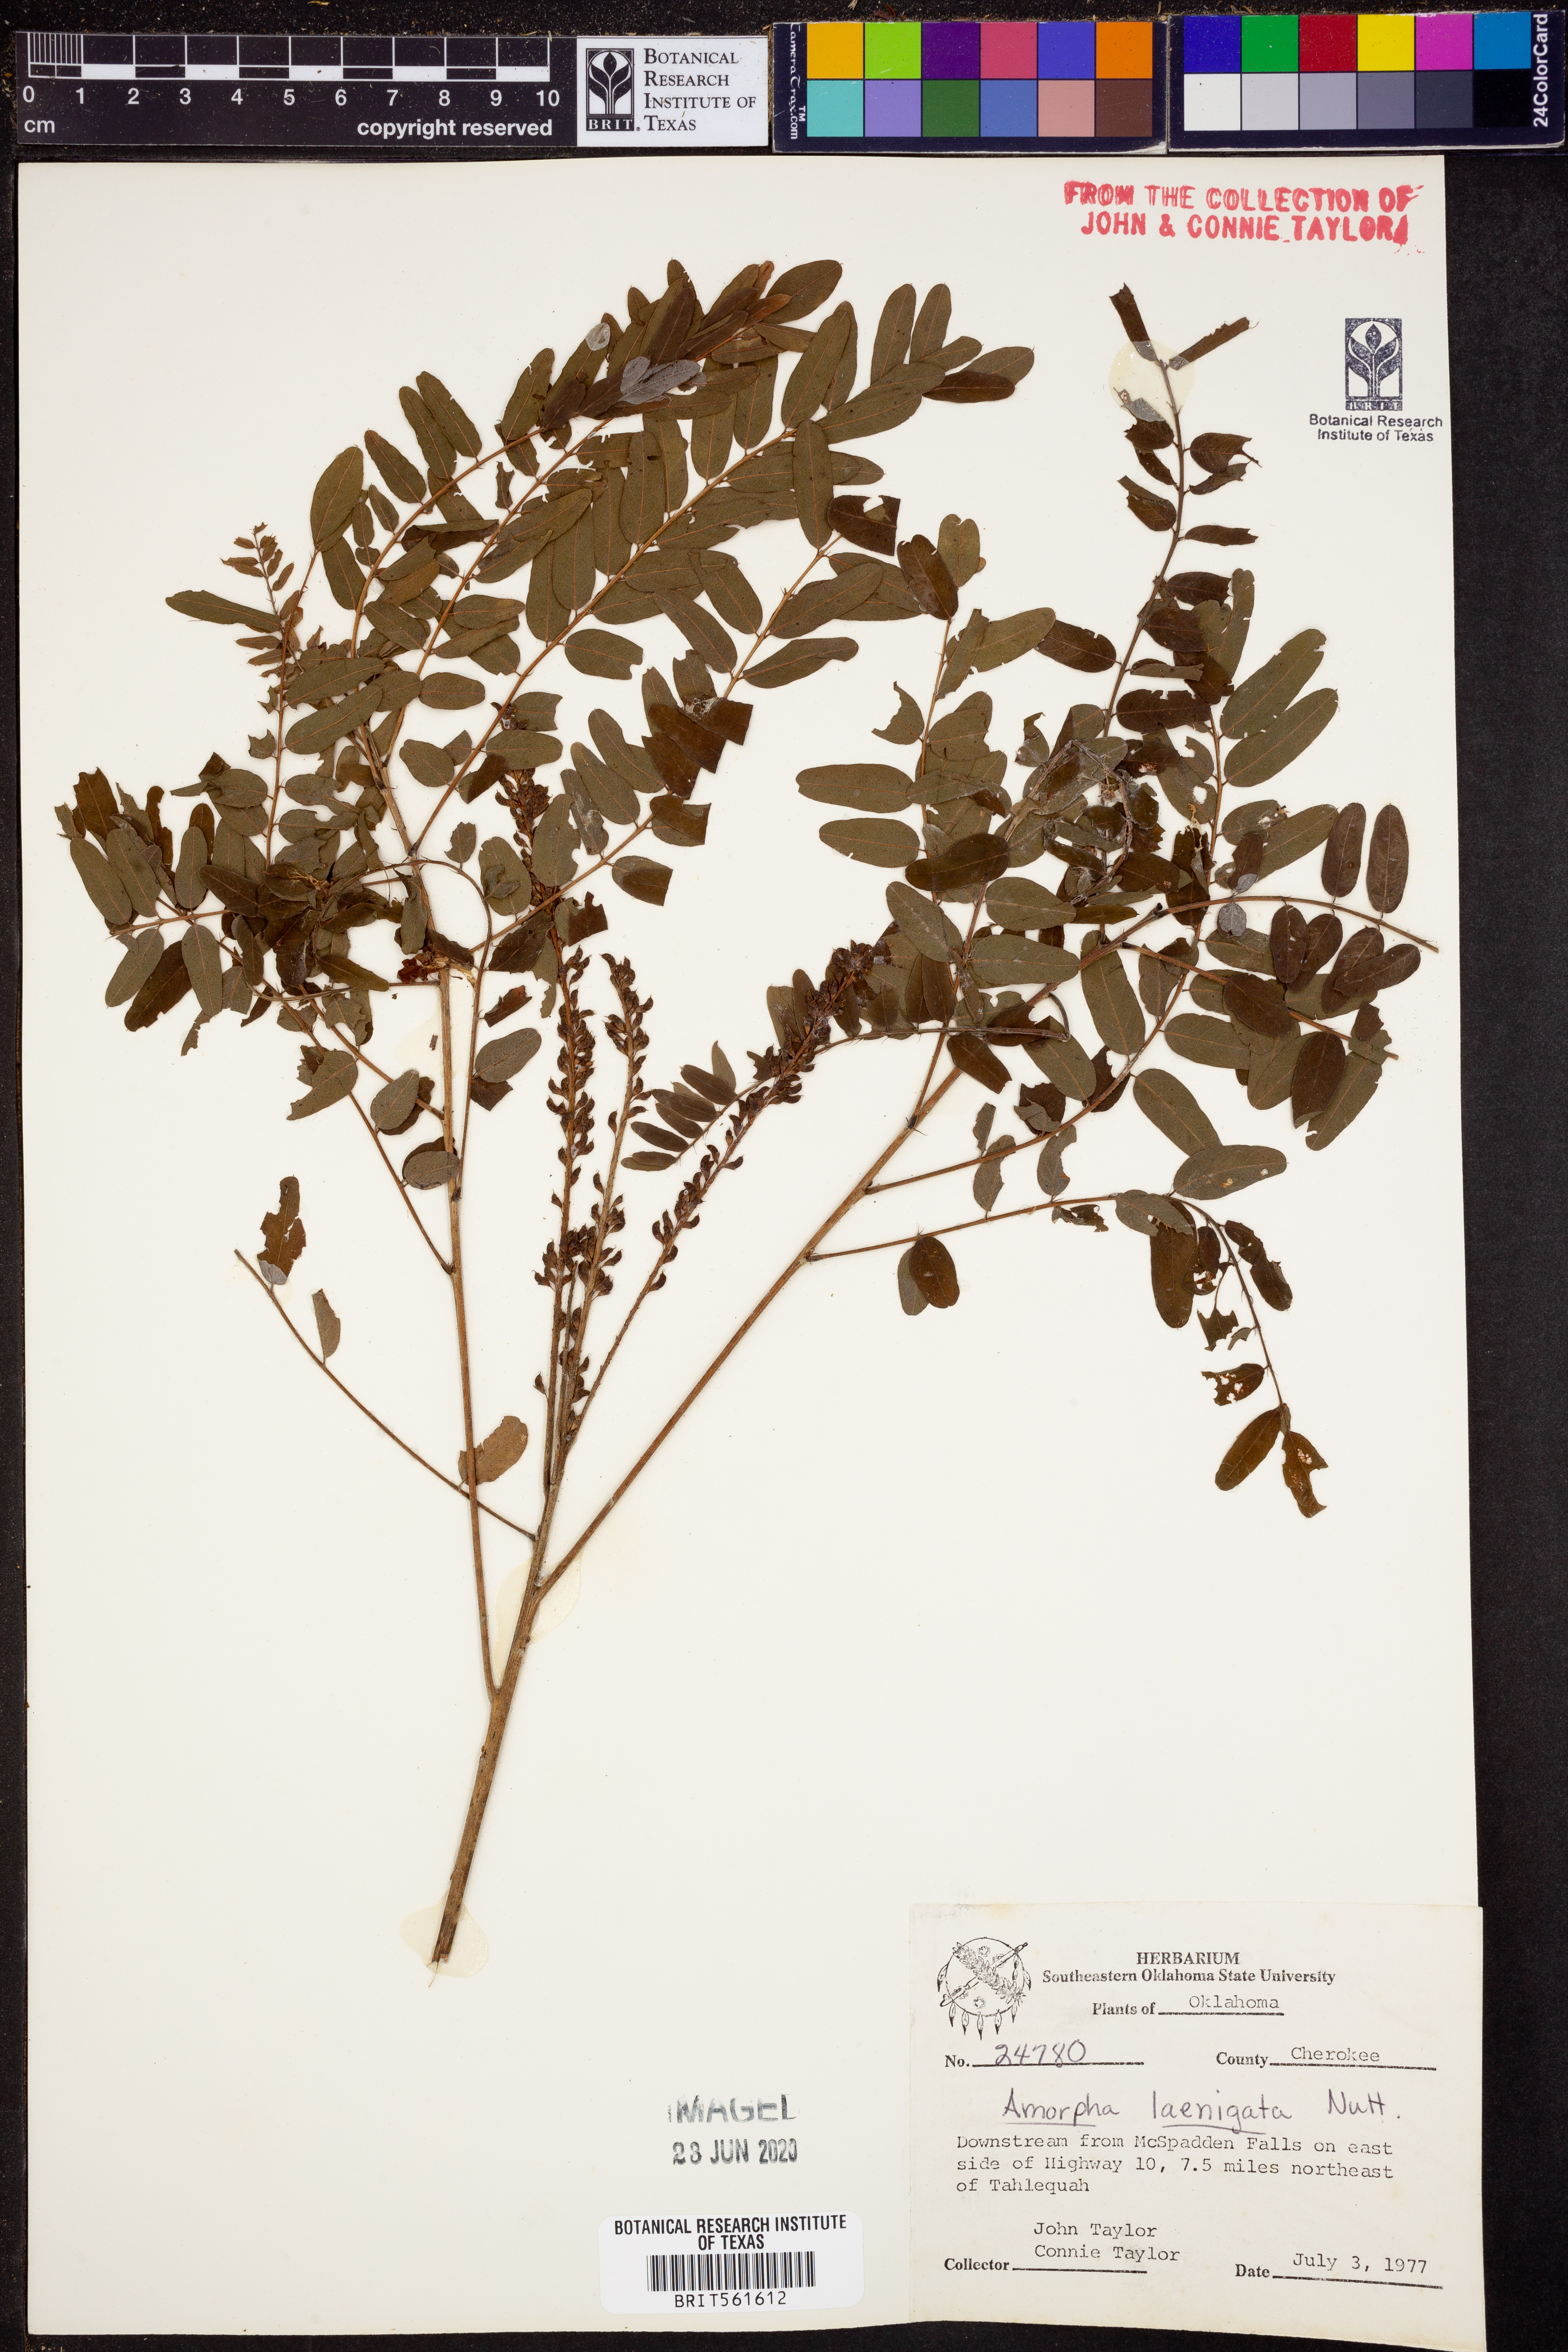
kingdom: Plantae
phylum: Tracheophyta
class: Magnoliopsida
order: Fabales
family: Fabaceae
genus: Amorpha
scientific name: Amorpha laevigata
